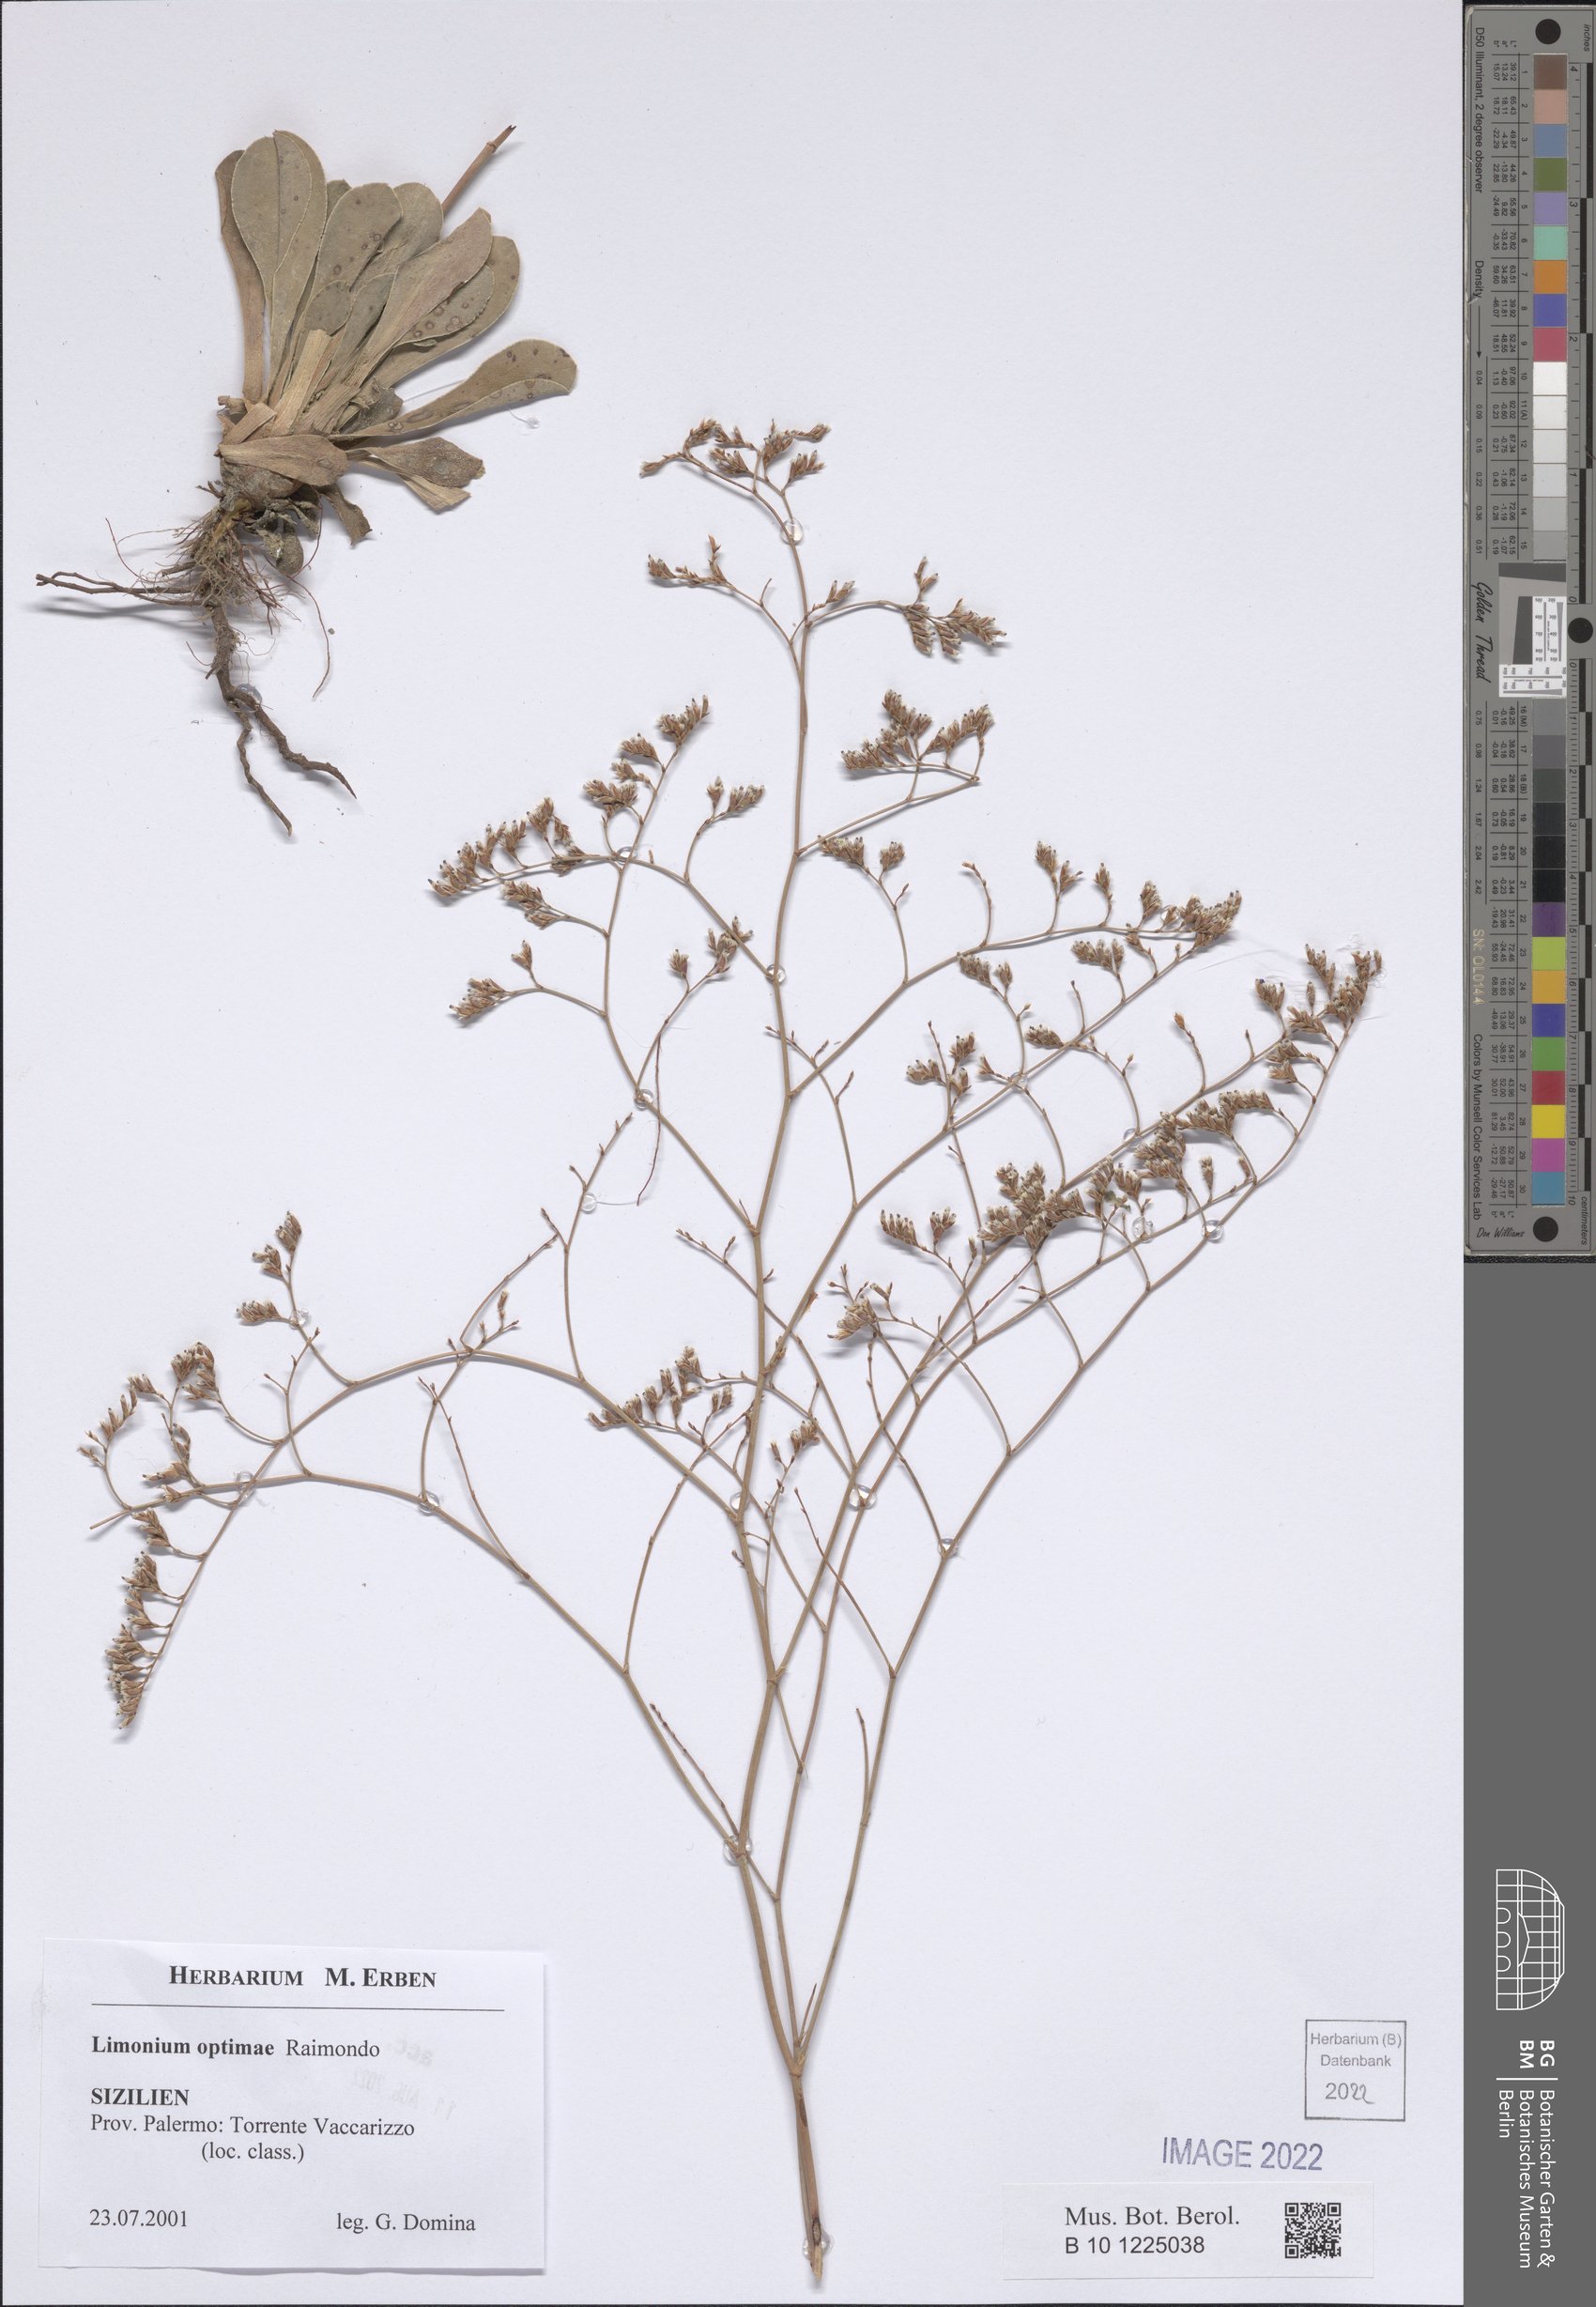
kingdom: Plantae
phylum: Tracheophyta
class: Magnoliopsida
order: Caryophyllales
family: Plumbaginaceae
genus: Limonium
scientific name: Limonium optimae
